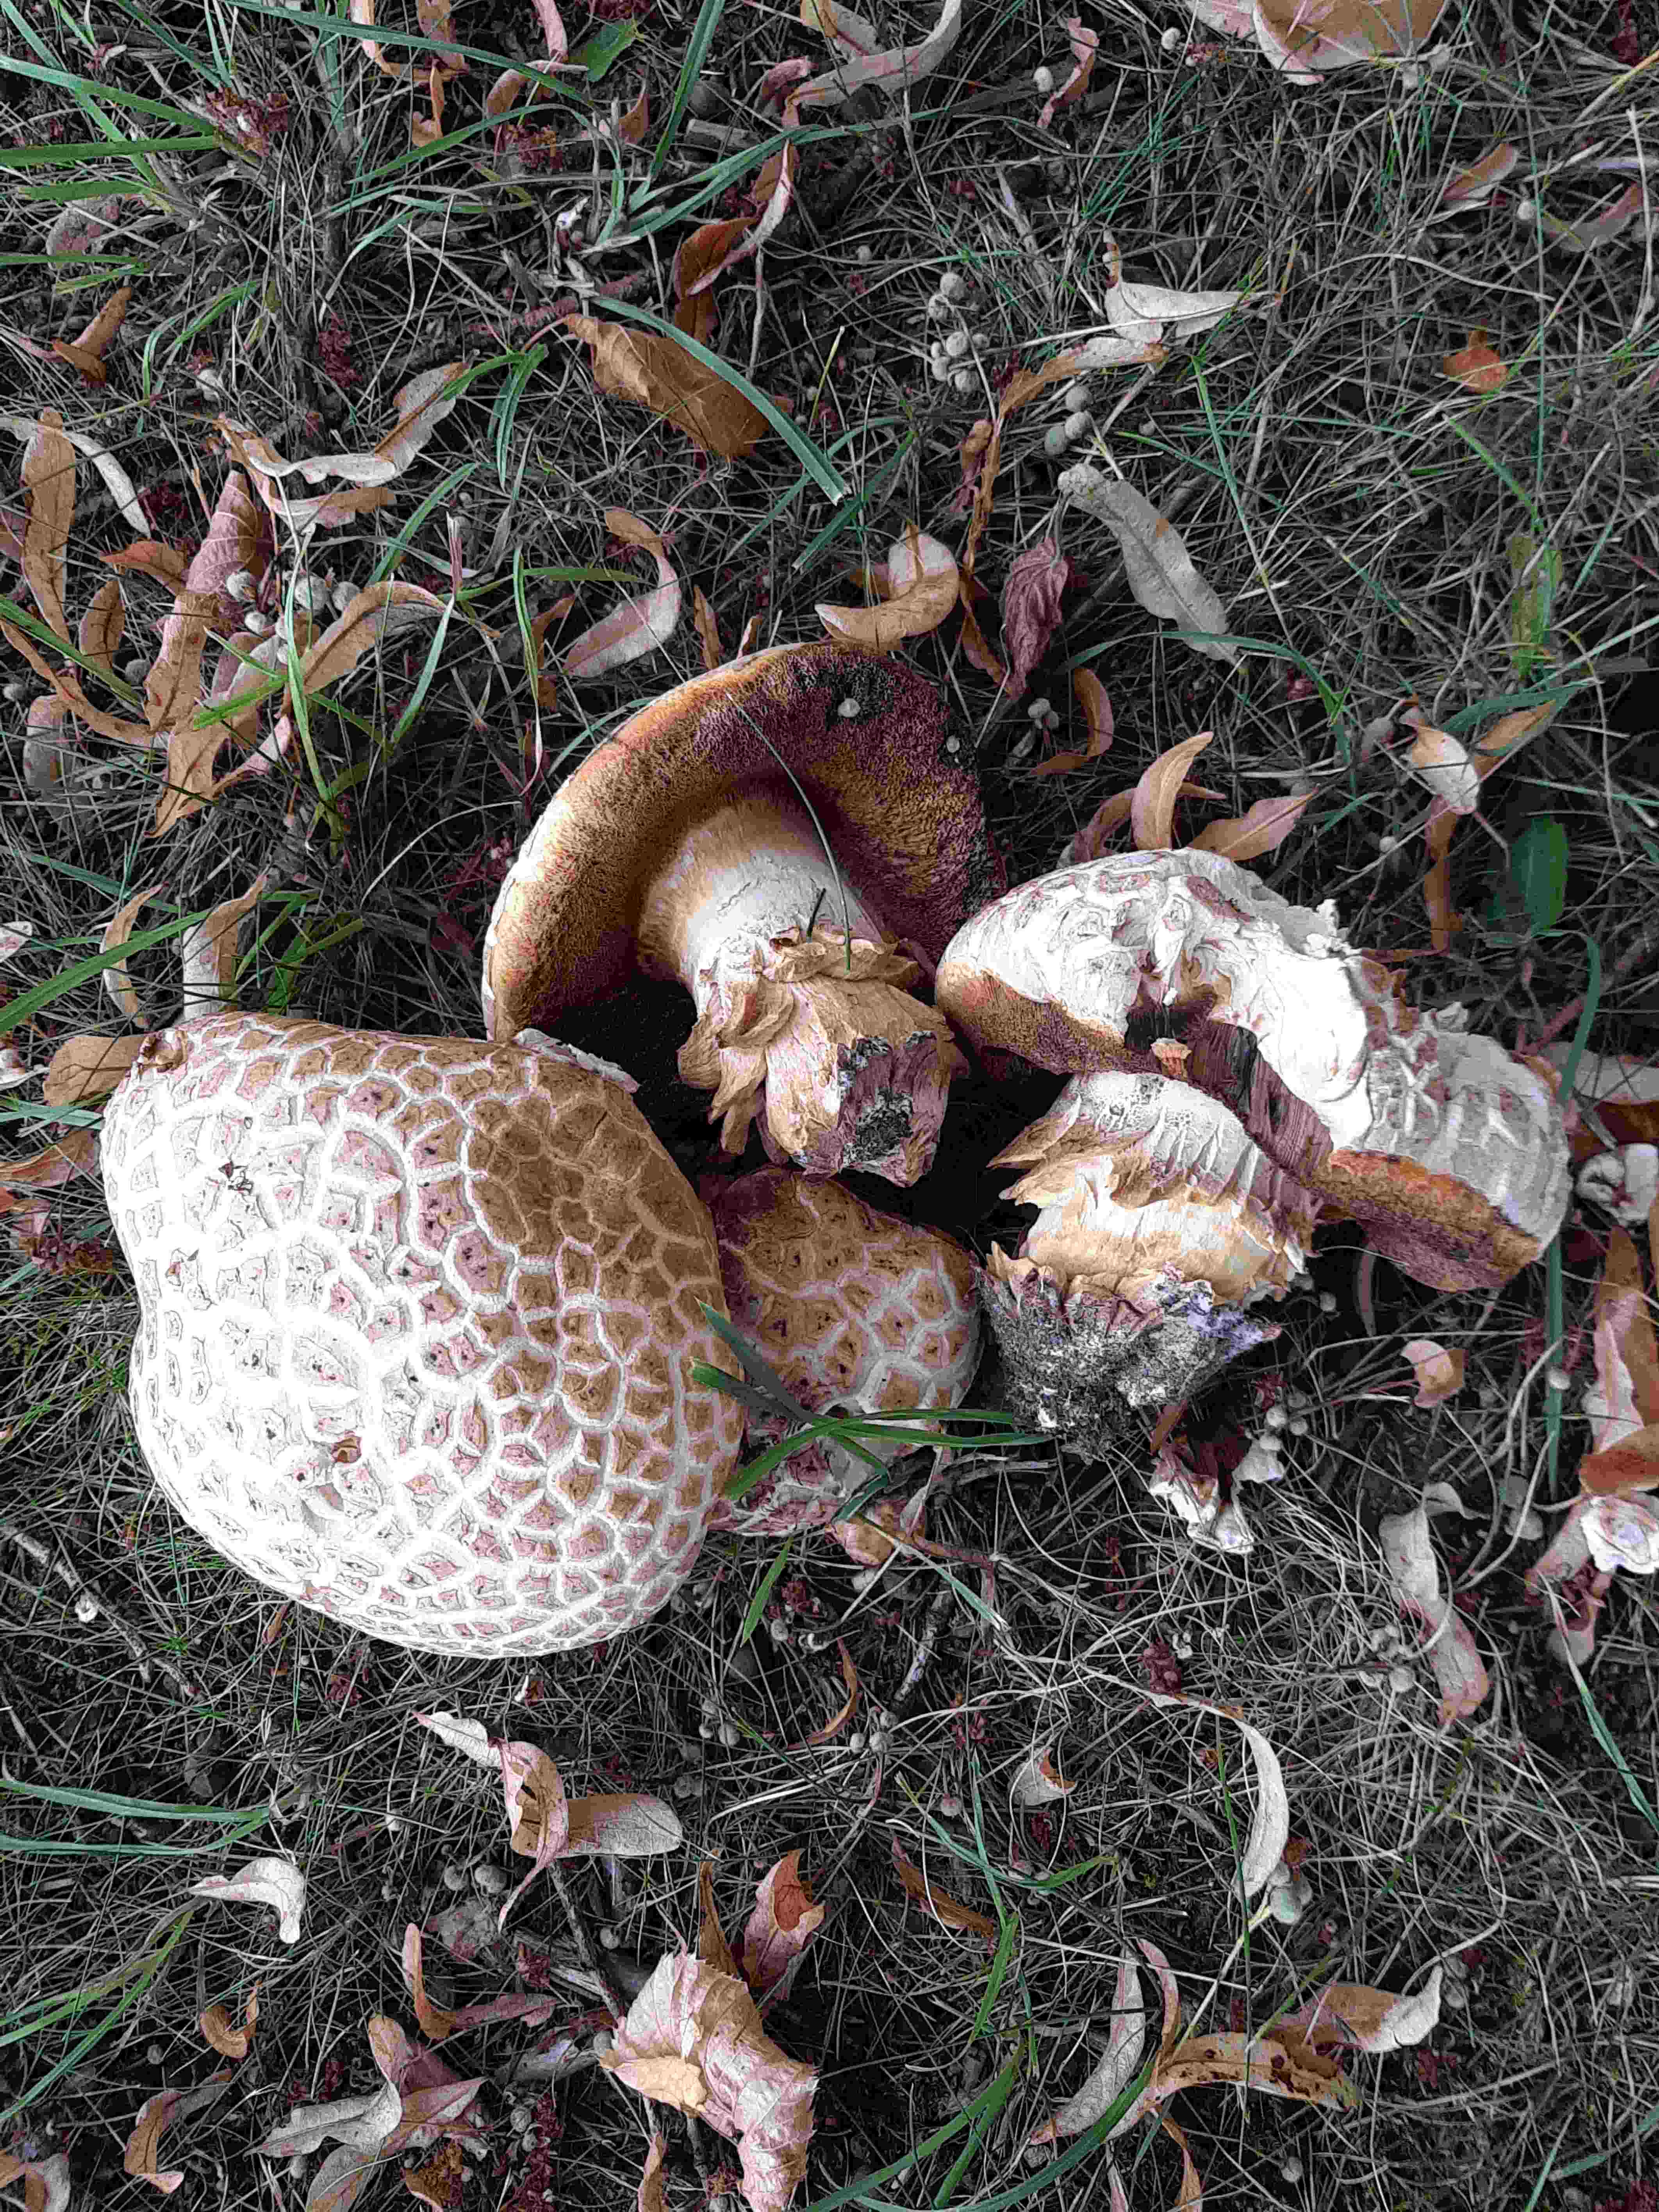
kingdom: Fungi
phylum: Basidiomycota
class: Agaricomycetes
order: Boletales
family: Boletaceae
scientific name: Boletaceae
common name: rørhatfamilien
